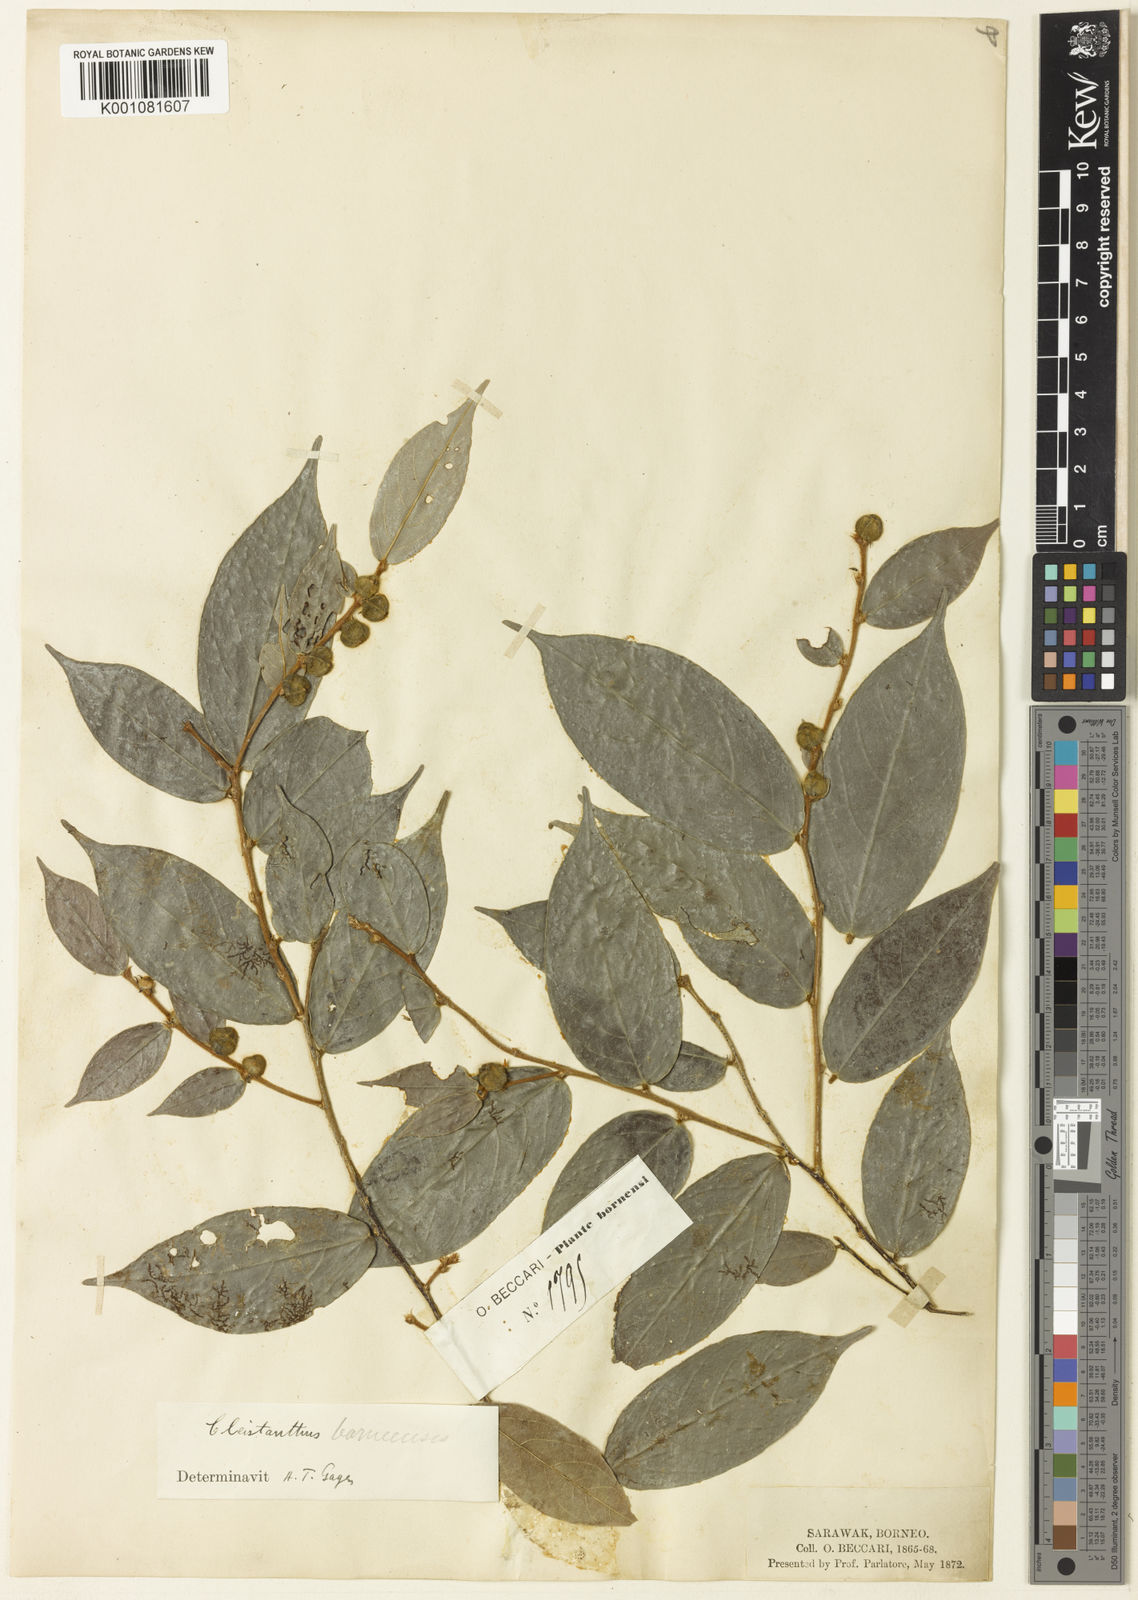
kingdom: Plantae
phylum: Tracheophyta
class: Magnoliopsida
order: Malpighiales
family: Phyllanthaceae
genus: Cleistanthus
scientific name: Cleistanthus maingayi
